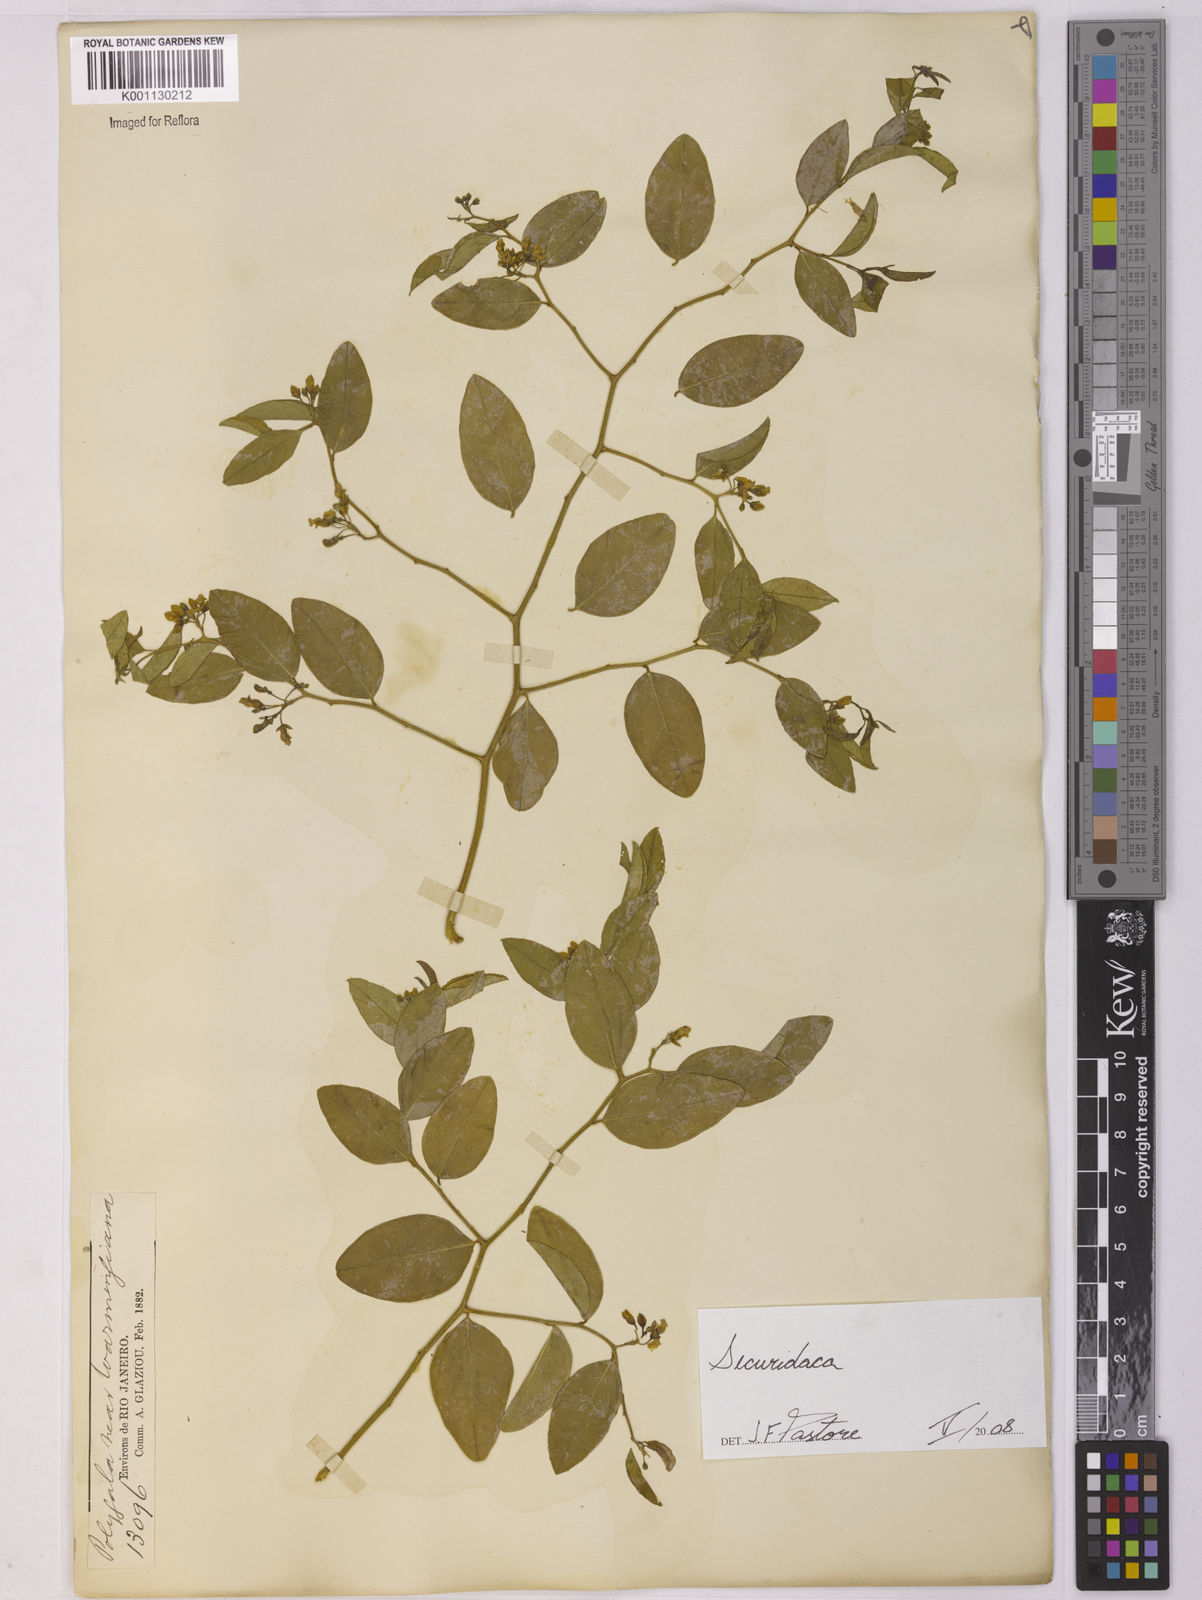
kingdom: Plantae
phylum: Tracheophyta
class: Magnoliopsida
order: Fabales
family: Polygalaceae
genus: Securidaca
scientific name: Securidaca
